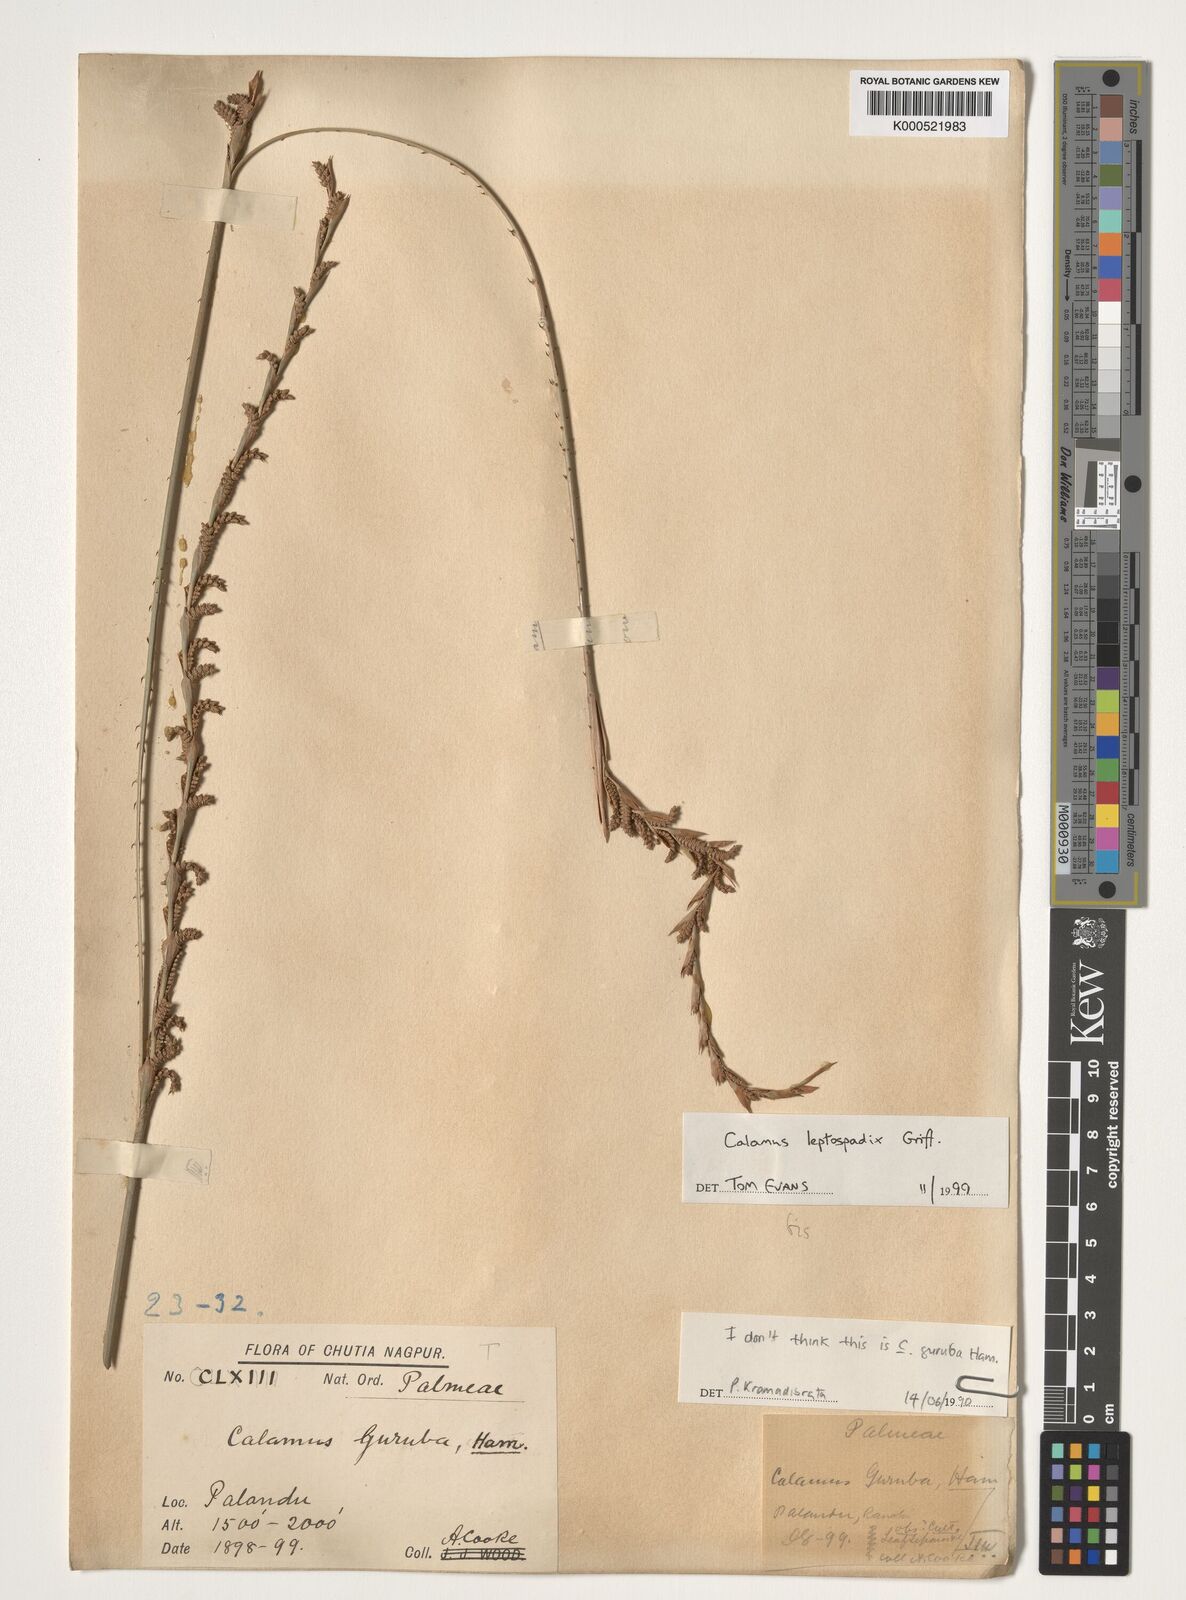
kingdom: Plantae
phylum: Tracheophyta
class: Liliopsida
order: Arecales
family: Arecaceae
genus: Calamus
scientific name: Calamus leptospadix
